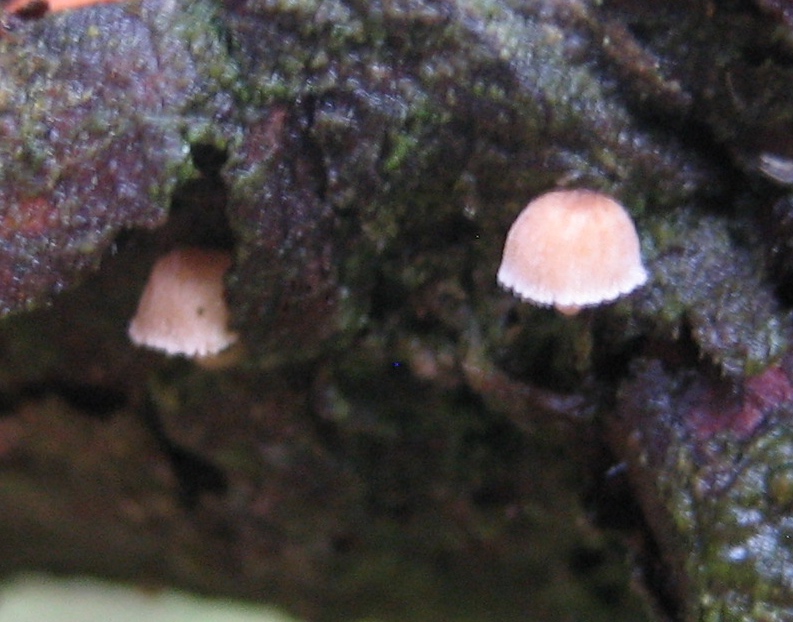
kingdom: Fungi
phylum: Basidiomycota
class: Agaricomycetes
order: Agaricales
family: Mycenaceae
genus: Mycena
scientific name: Mycena juniperina
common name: ene-Huesvamp
